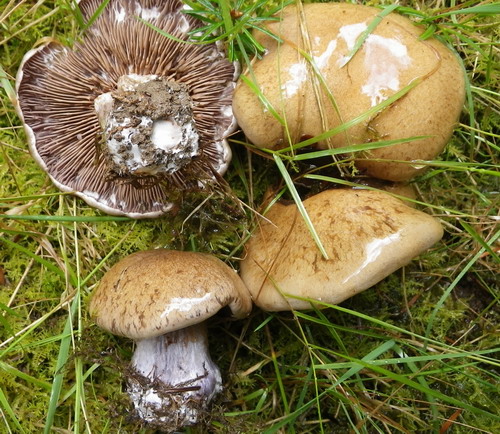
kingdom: Fungi
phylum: Basidiomycota
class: Agaricomycetes
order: Agaricales
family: Cortinariaceae
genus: Thaxterogaster
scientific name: Thaxterogaster subpurpurascens
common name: mørkblånende slørhat
